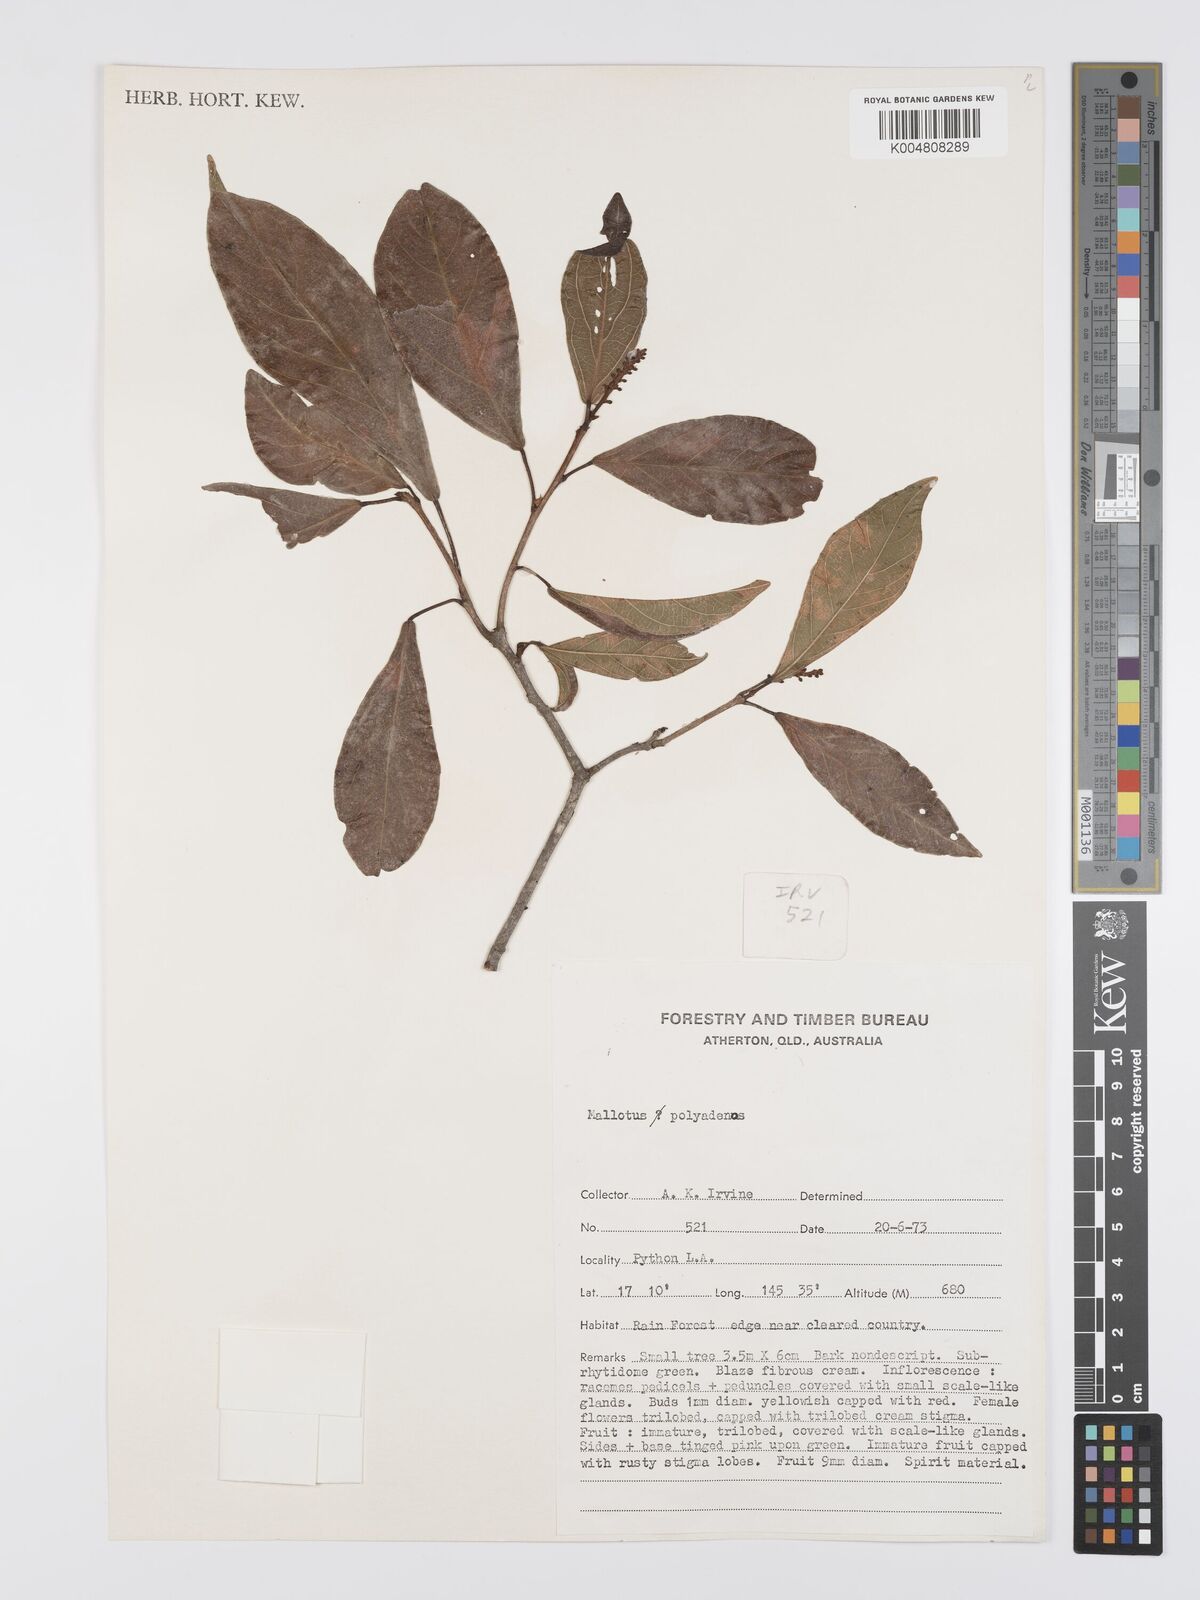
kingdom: Plantae
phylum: Tracheophyta
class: Magnoliopsida
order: Malpighiales
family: Euphorbiaceae
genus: Mallotus
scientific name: Mallotus polyadenos
